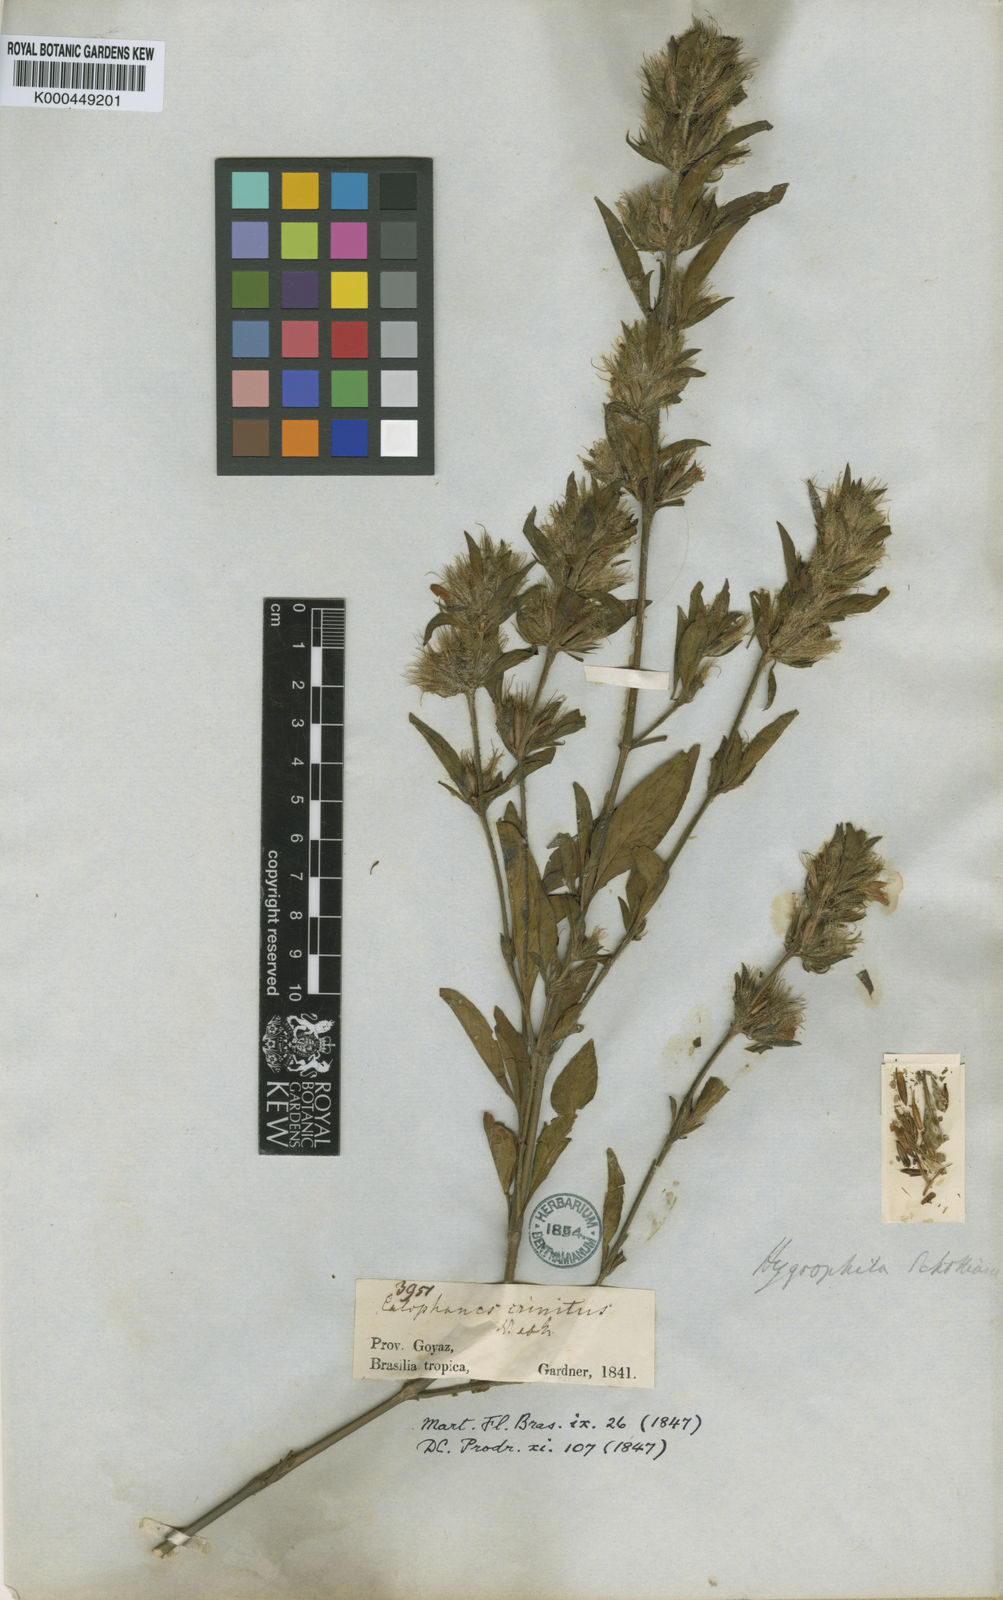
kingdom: Plantae
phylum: Tracheophyta
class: Magnoliopsida
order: Lamiales
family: Acanthaceae
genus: Dyschoriste
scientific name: Dyschoriste schottiana
